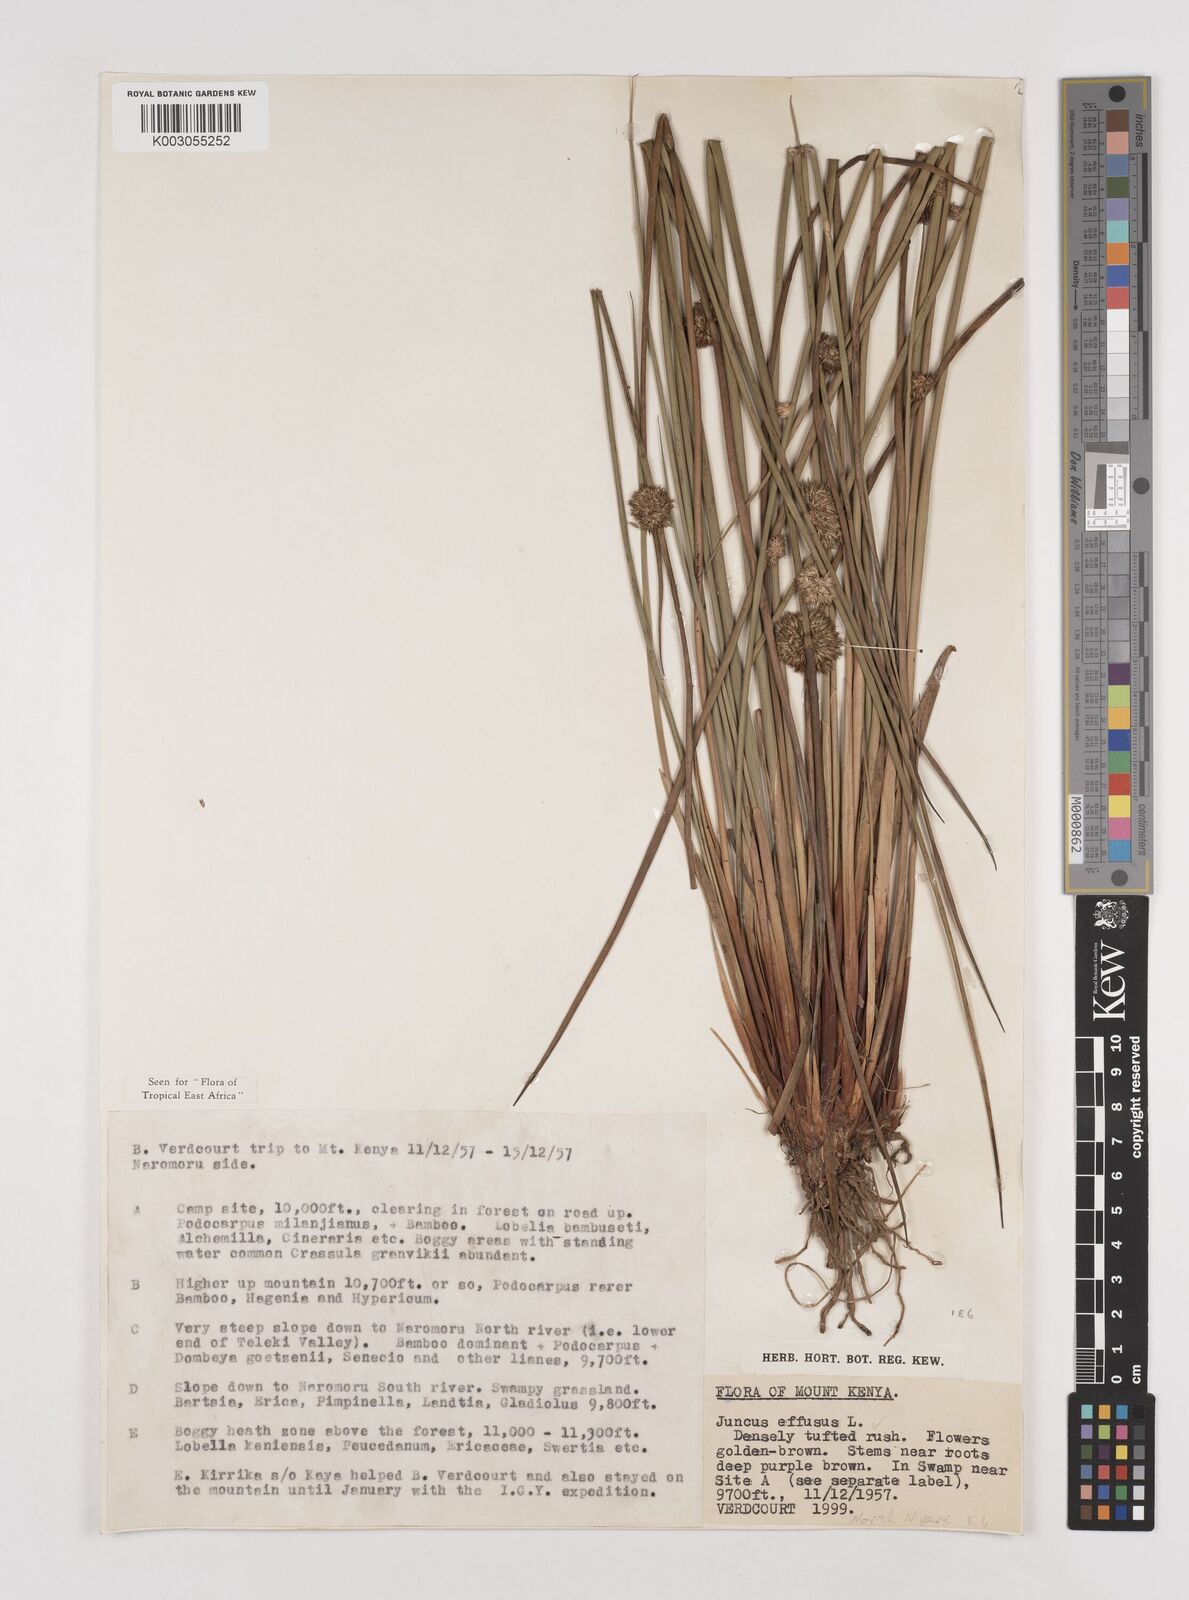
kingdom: Plantae
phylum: Tracheophyta
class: Liliopsida
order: Poales
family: Juncaceae
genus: Juncus
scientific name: Juncus effusus
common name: Soft rush
